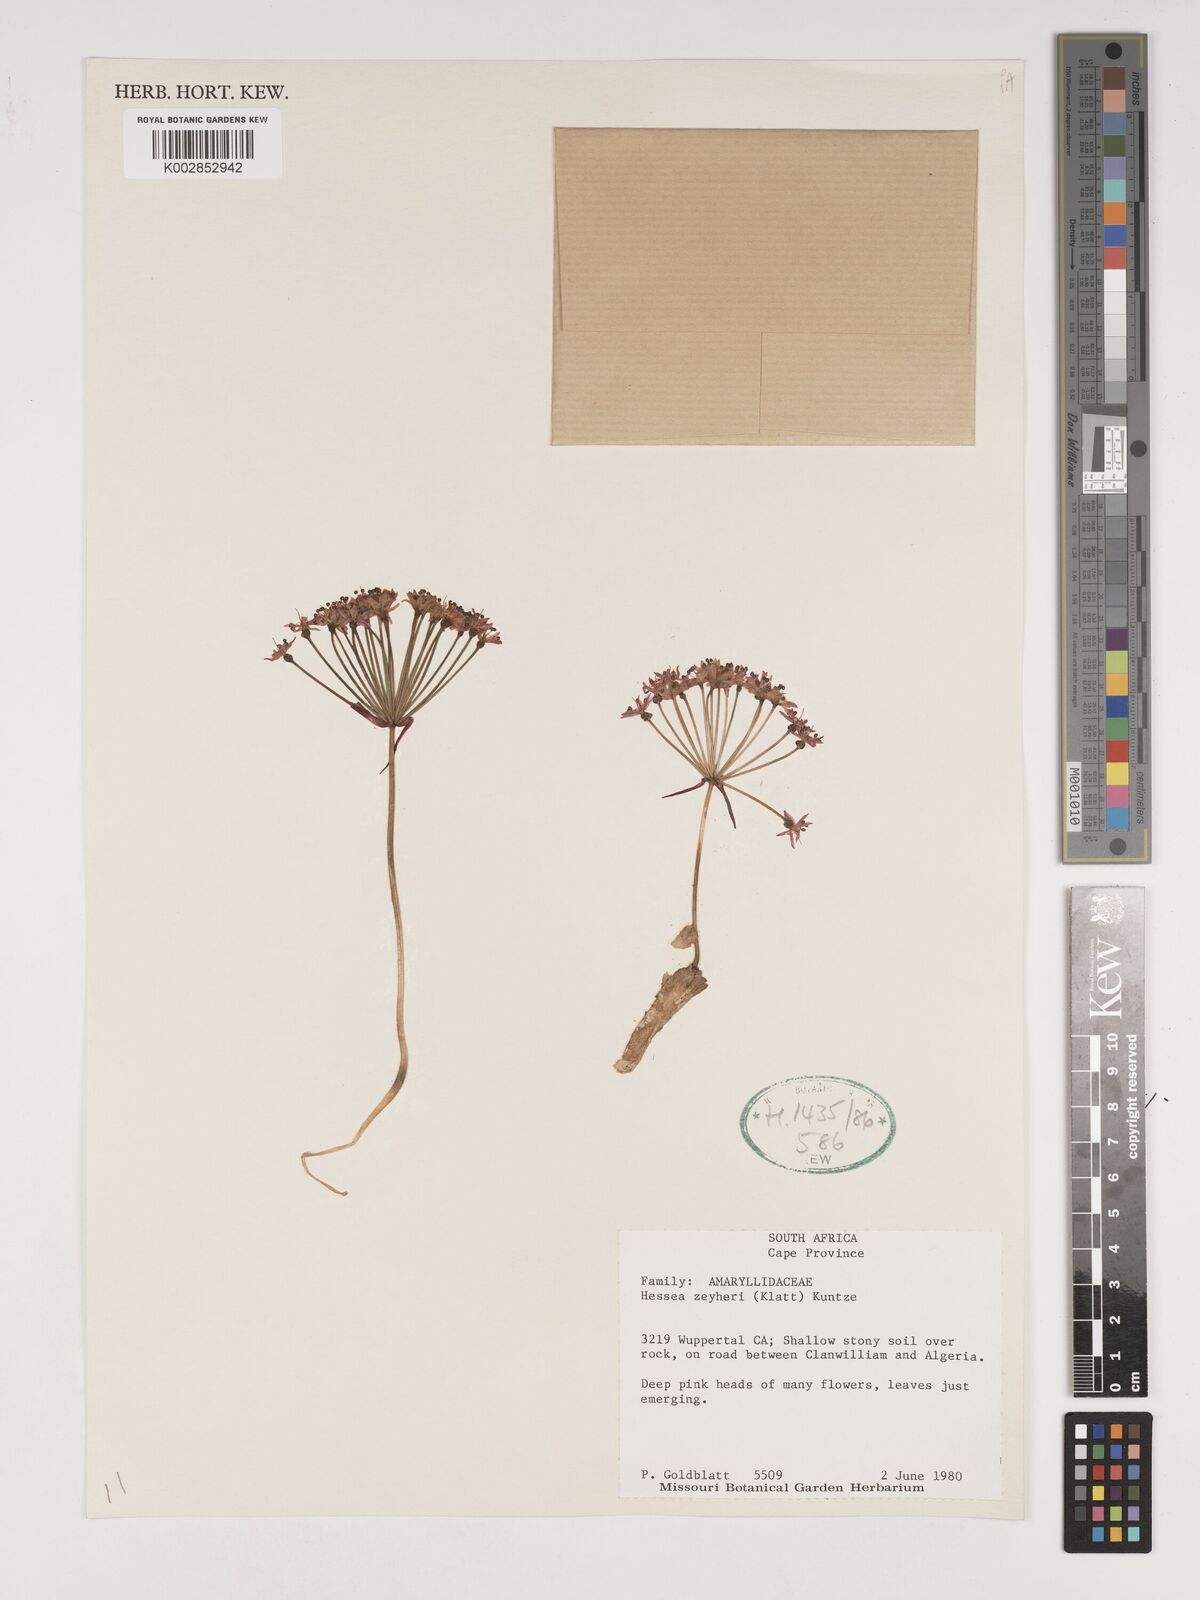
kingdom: Plantae
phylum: Tracheophyta
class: Liliopsida
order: Asparagales
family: Amaryllidaceae
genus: Hessea
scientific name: Hessea breviflora
